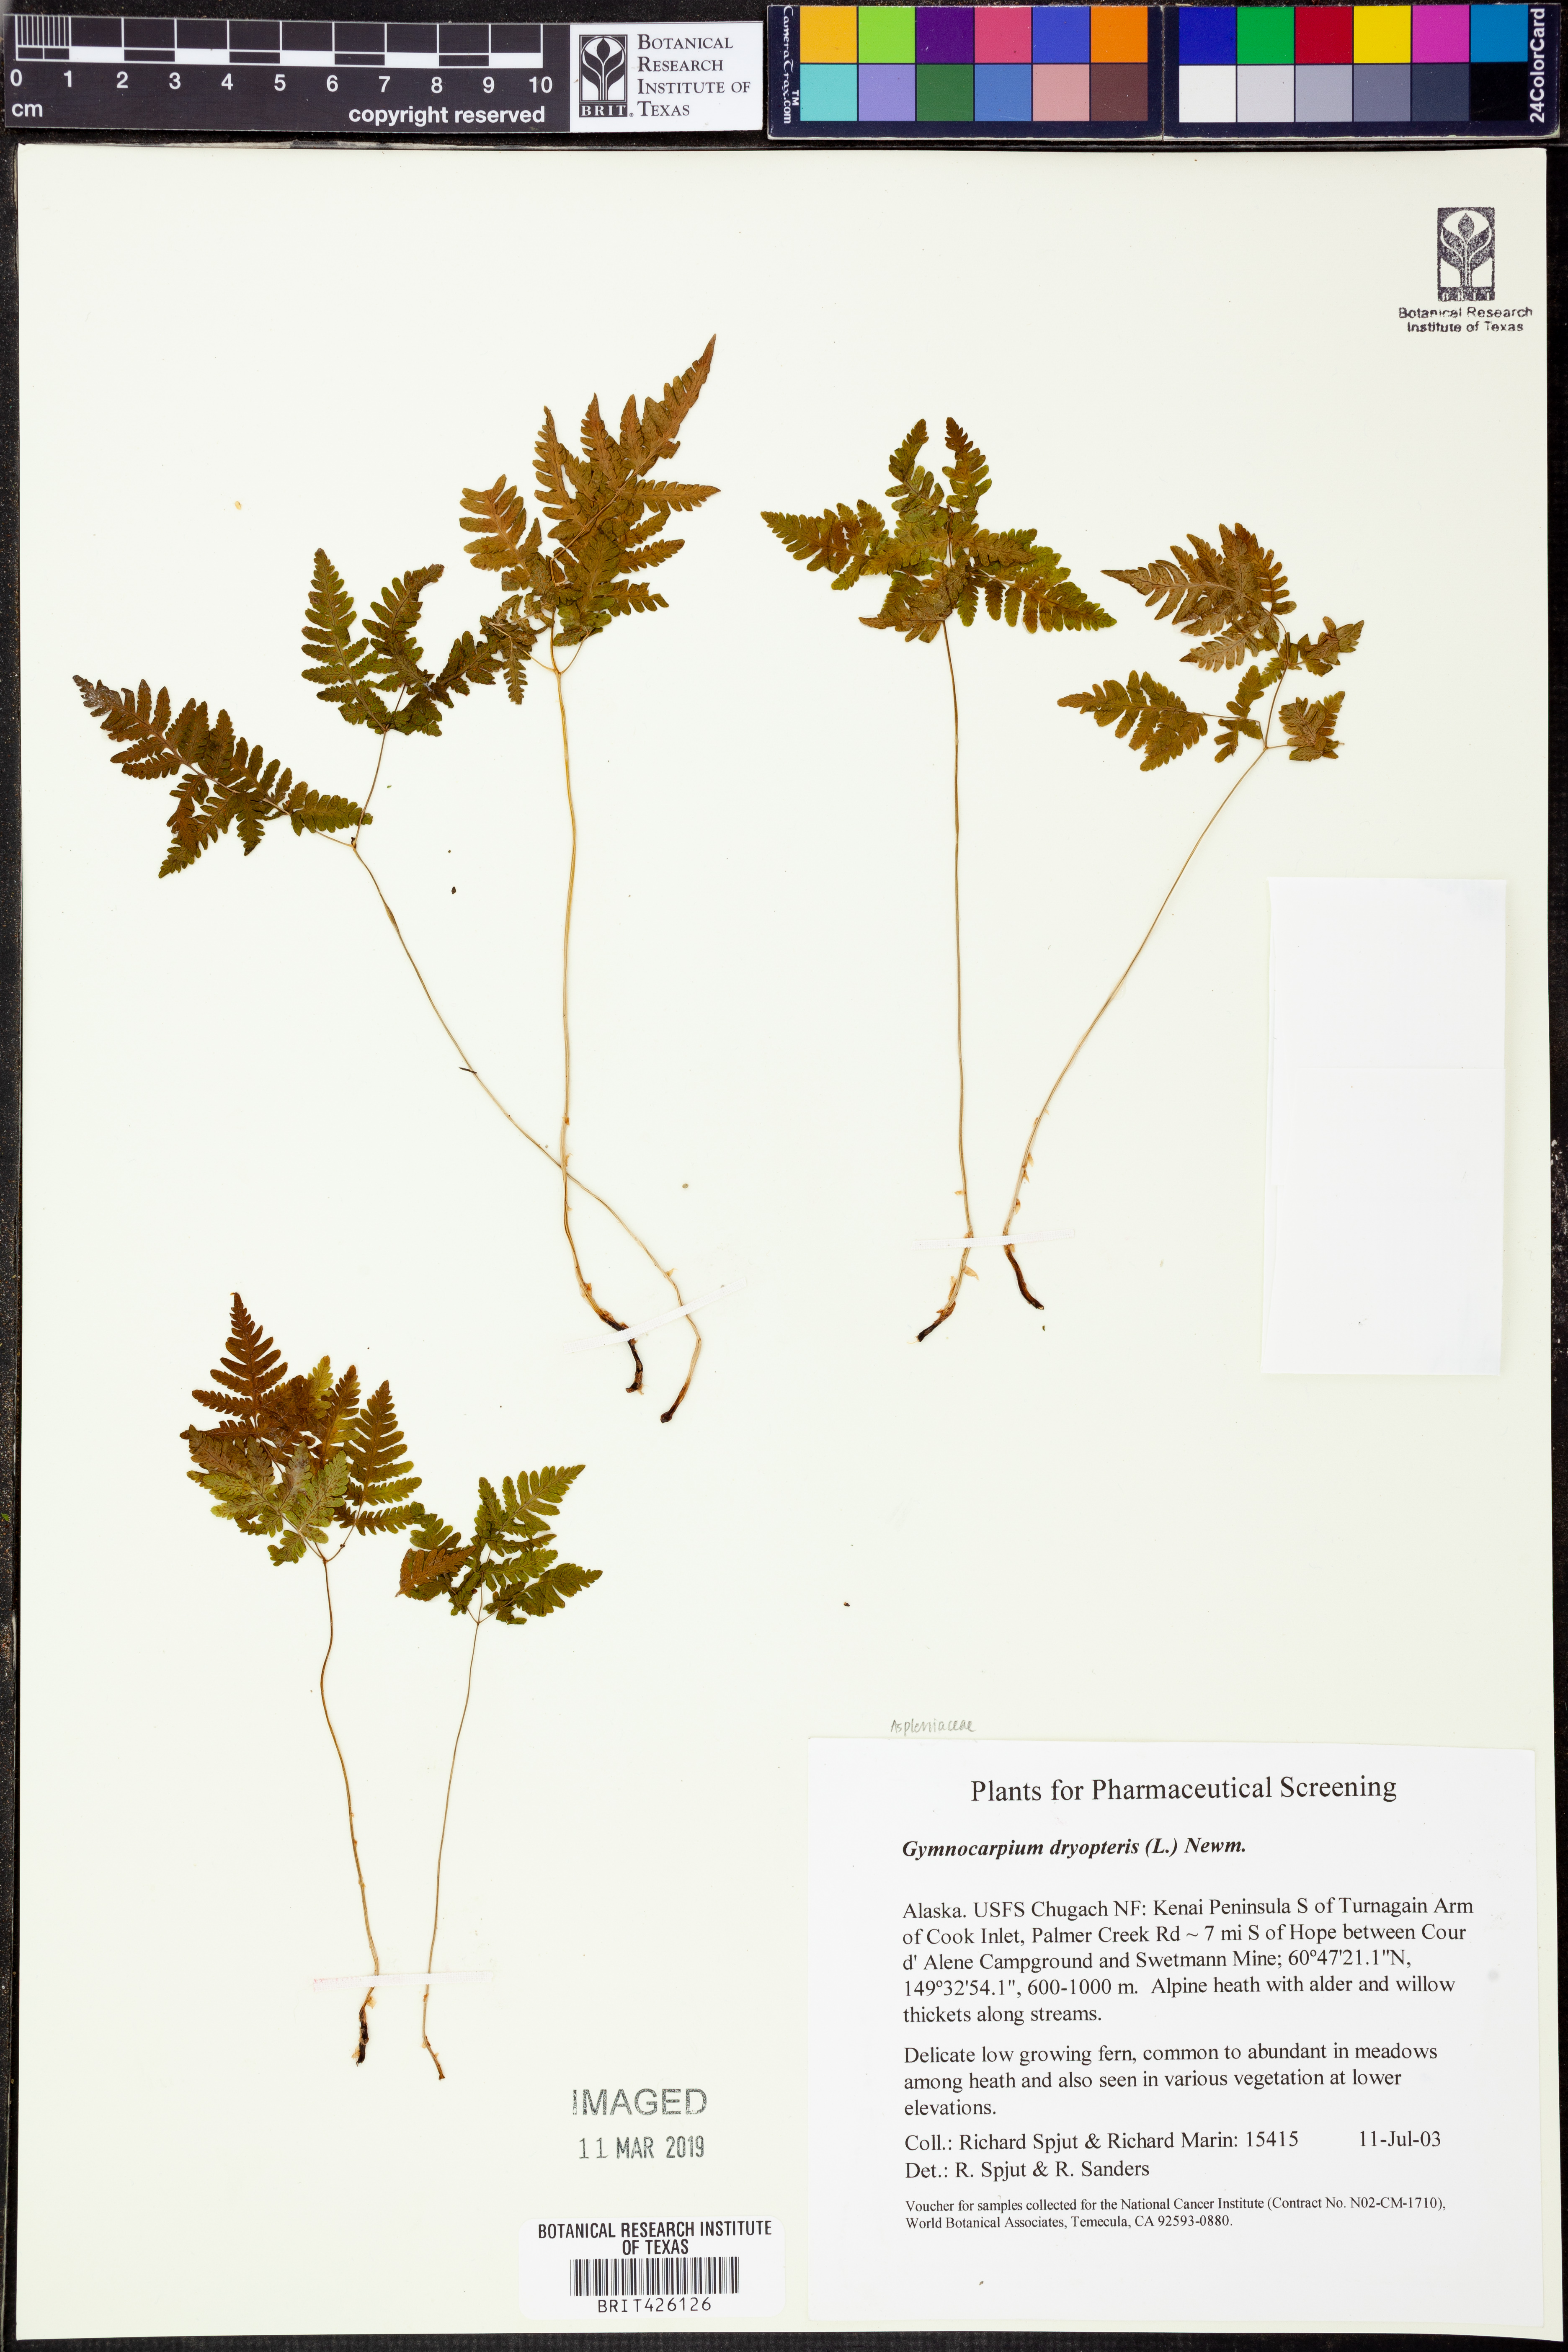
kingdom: Plantae
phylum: Tracheophyta
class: Polypodiopsida
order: Polypodiales
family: Cystopteridaceae
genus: Gymnocarpium
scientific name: Gymnocarpium dryopteris
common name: Oak fern
